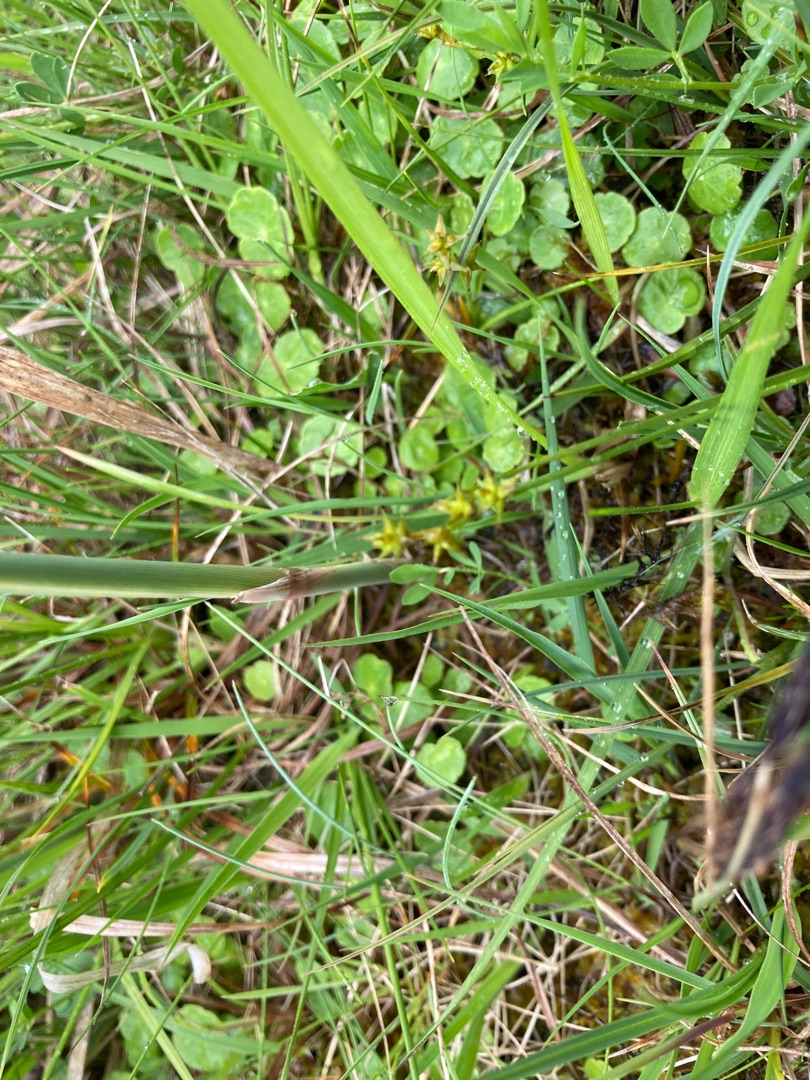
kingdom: Plantae
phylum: Tracheophyta
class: Liliopsida
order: Poales
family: Cyperaceae
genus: Carex
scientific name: Carex echinata
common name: Stjerne-star
